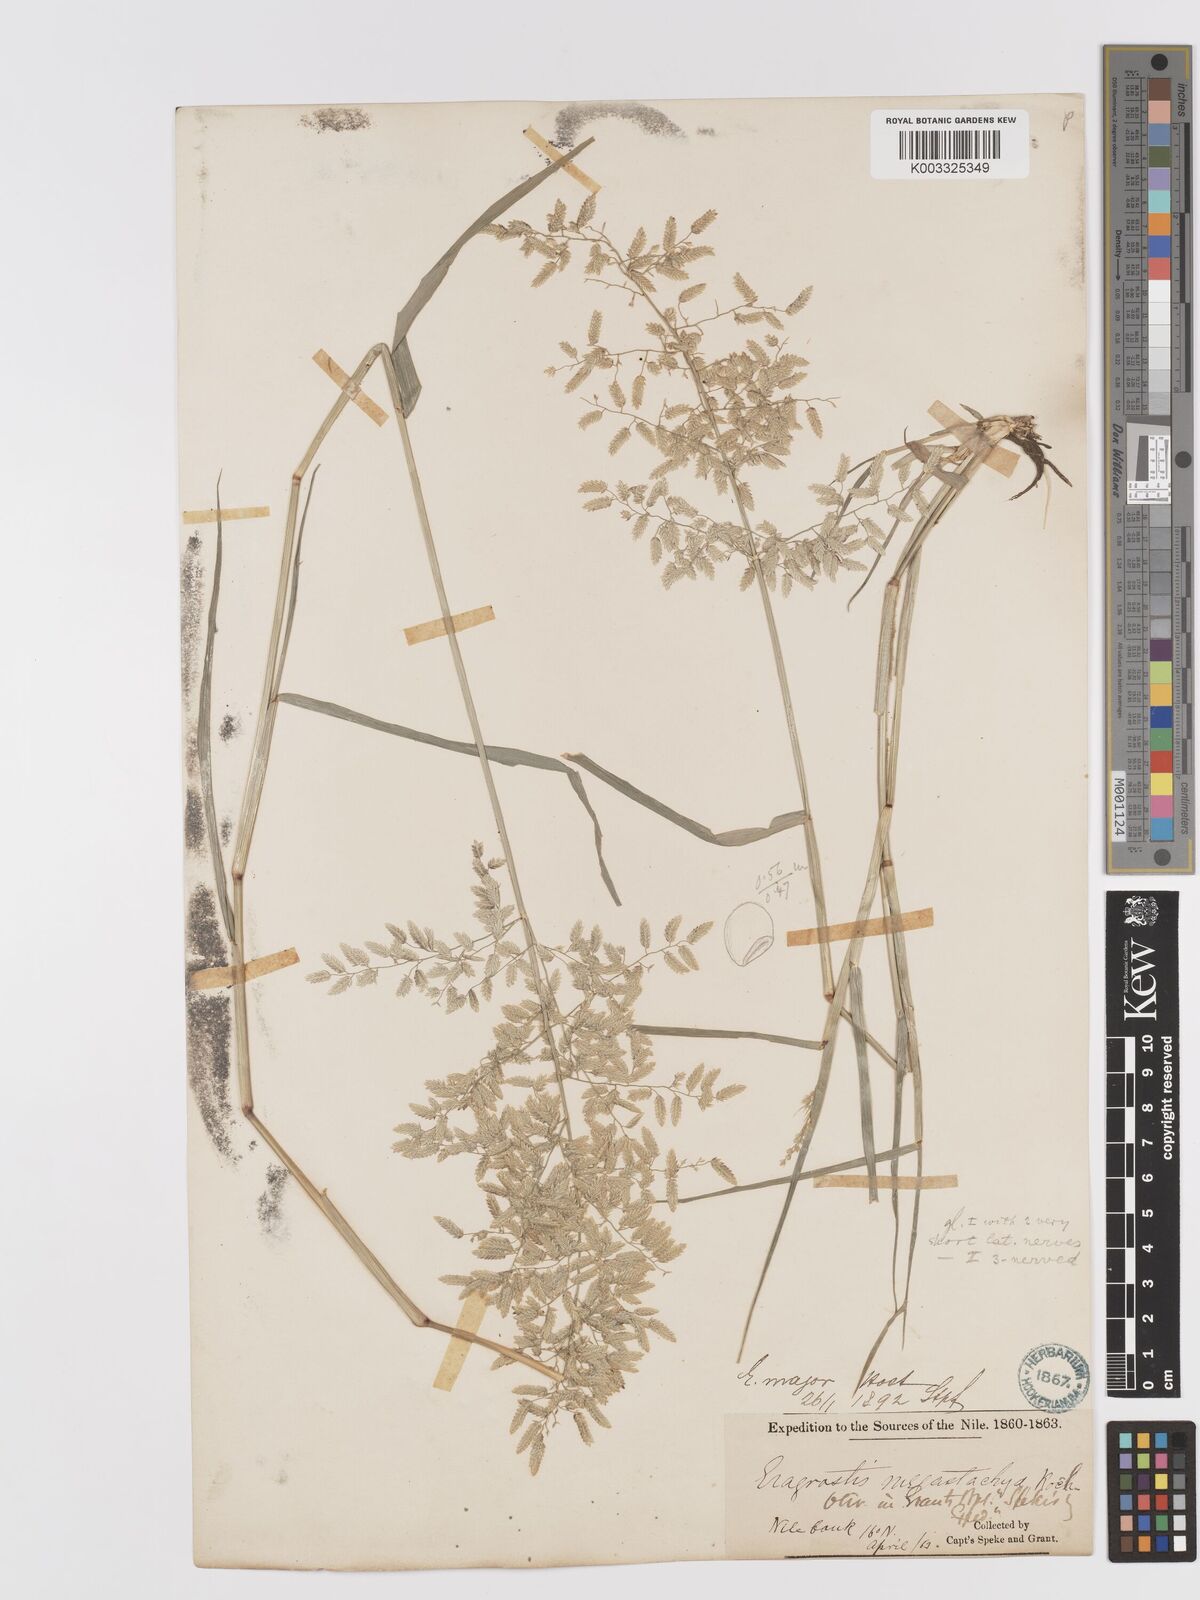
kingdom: Plantae
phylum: Tracheophyta
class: Liliopsida
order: Poales
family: Poaceae
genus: Eragrostis
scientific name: Eragrostis cilianensis
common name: Stinkgrass
